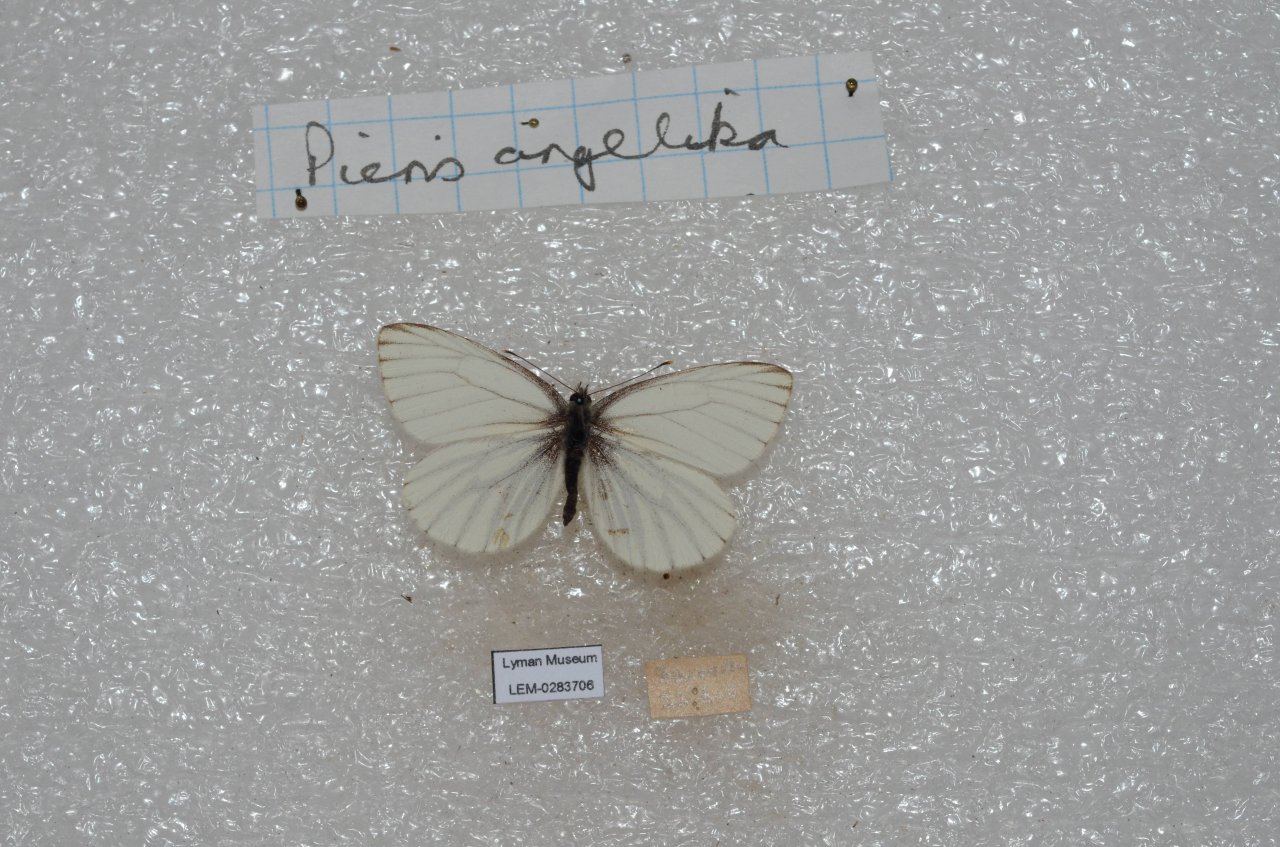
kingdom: Animalia
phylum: Arthropoda
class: Insecta
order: Lepidoptera
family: Pieridae
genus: Pieris
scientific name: Pieris angelika
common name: Arctic White
